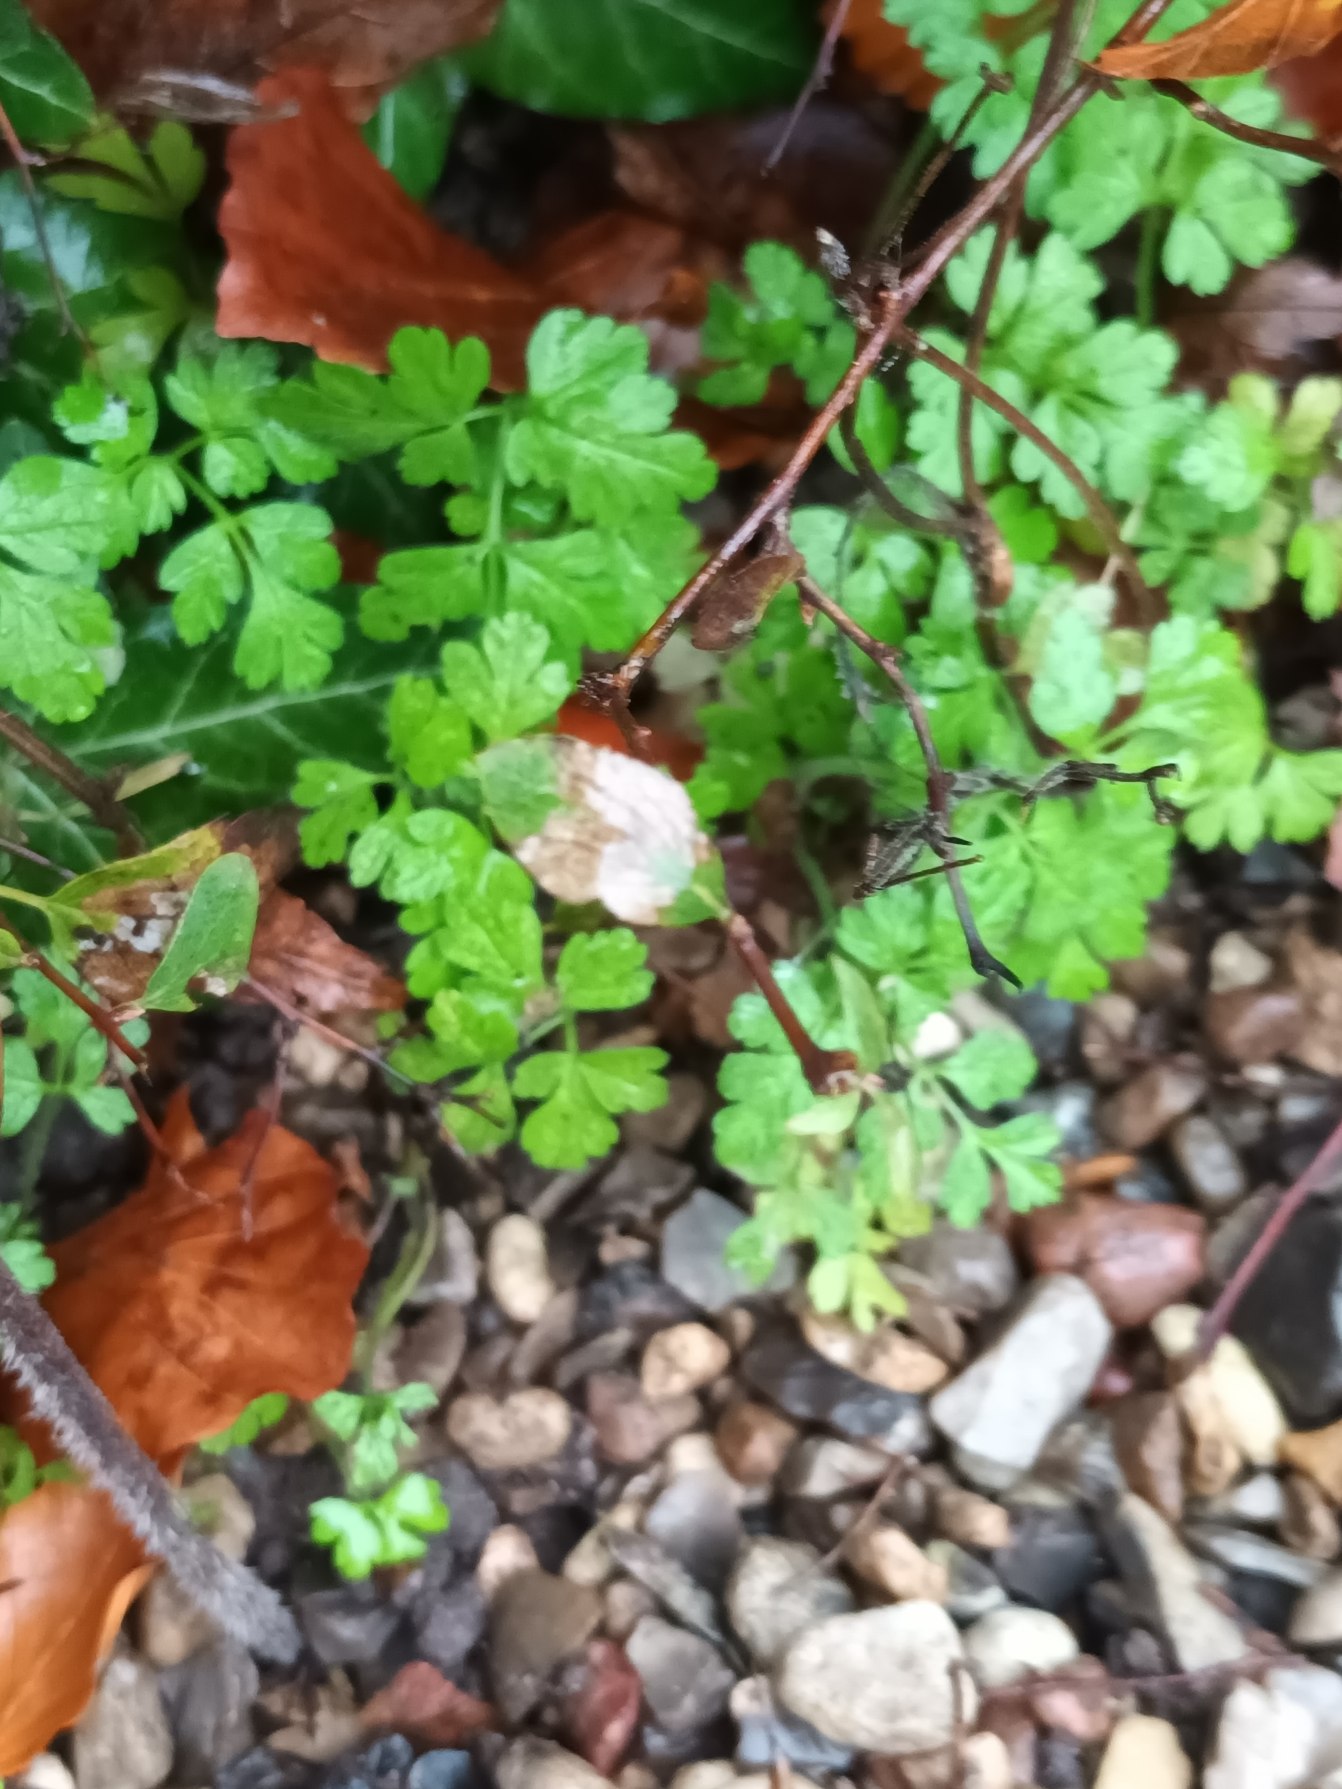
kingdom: Plantae
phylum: Tracheophyta
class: Magnoliopsida
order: Apiales
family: Apiaceae
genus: Chaerophyllum
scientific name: Chaerophyllum temulum
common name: Almindelig hulsvøb
